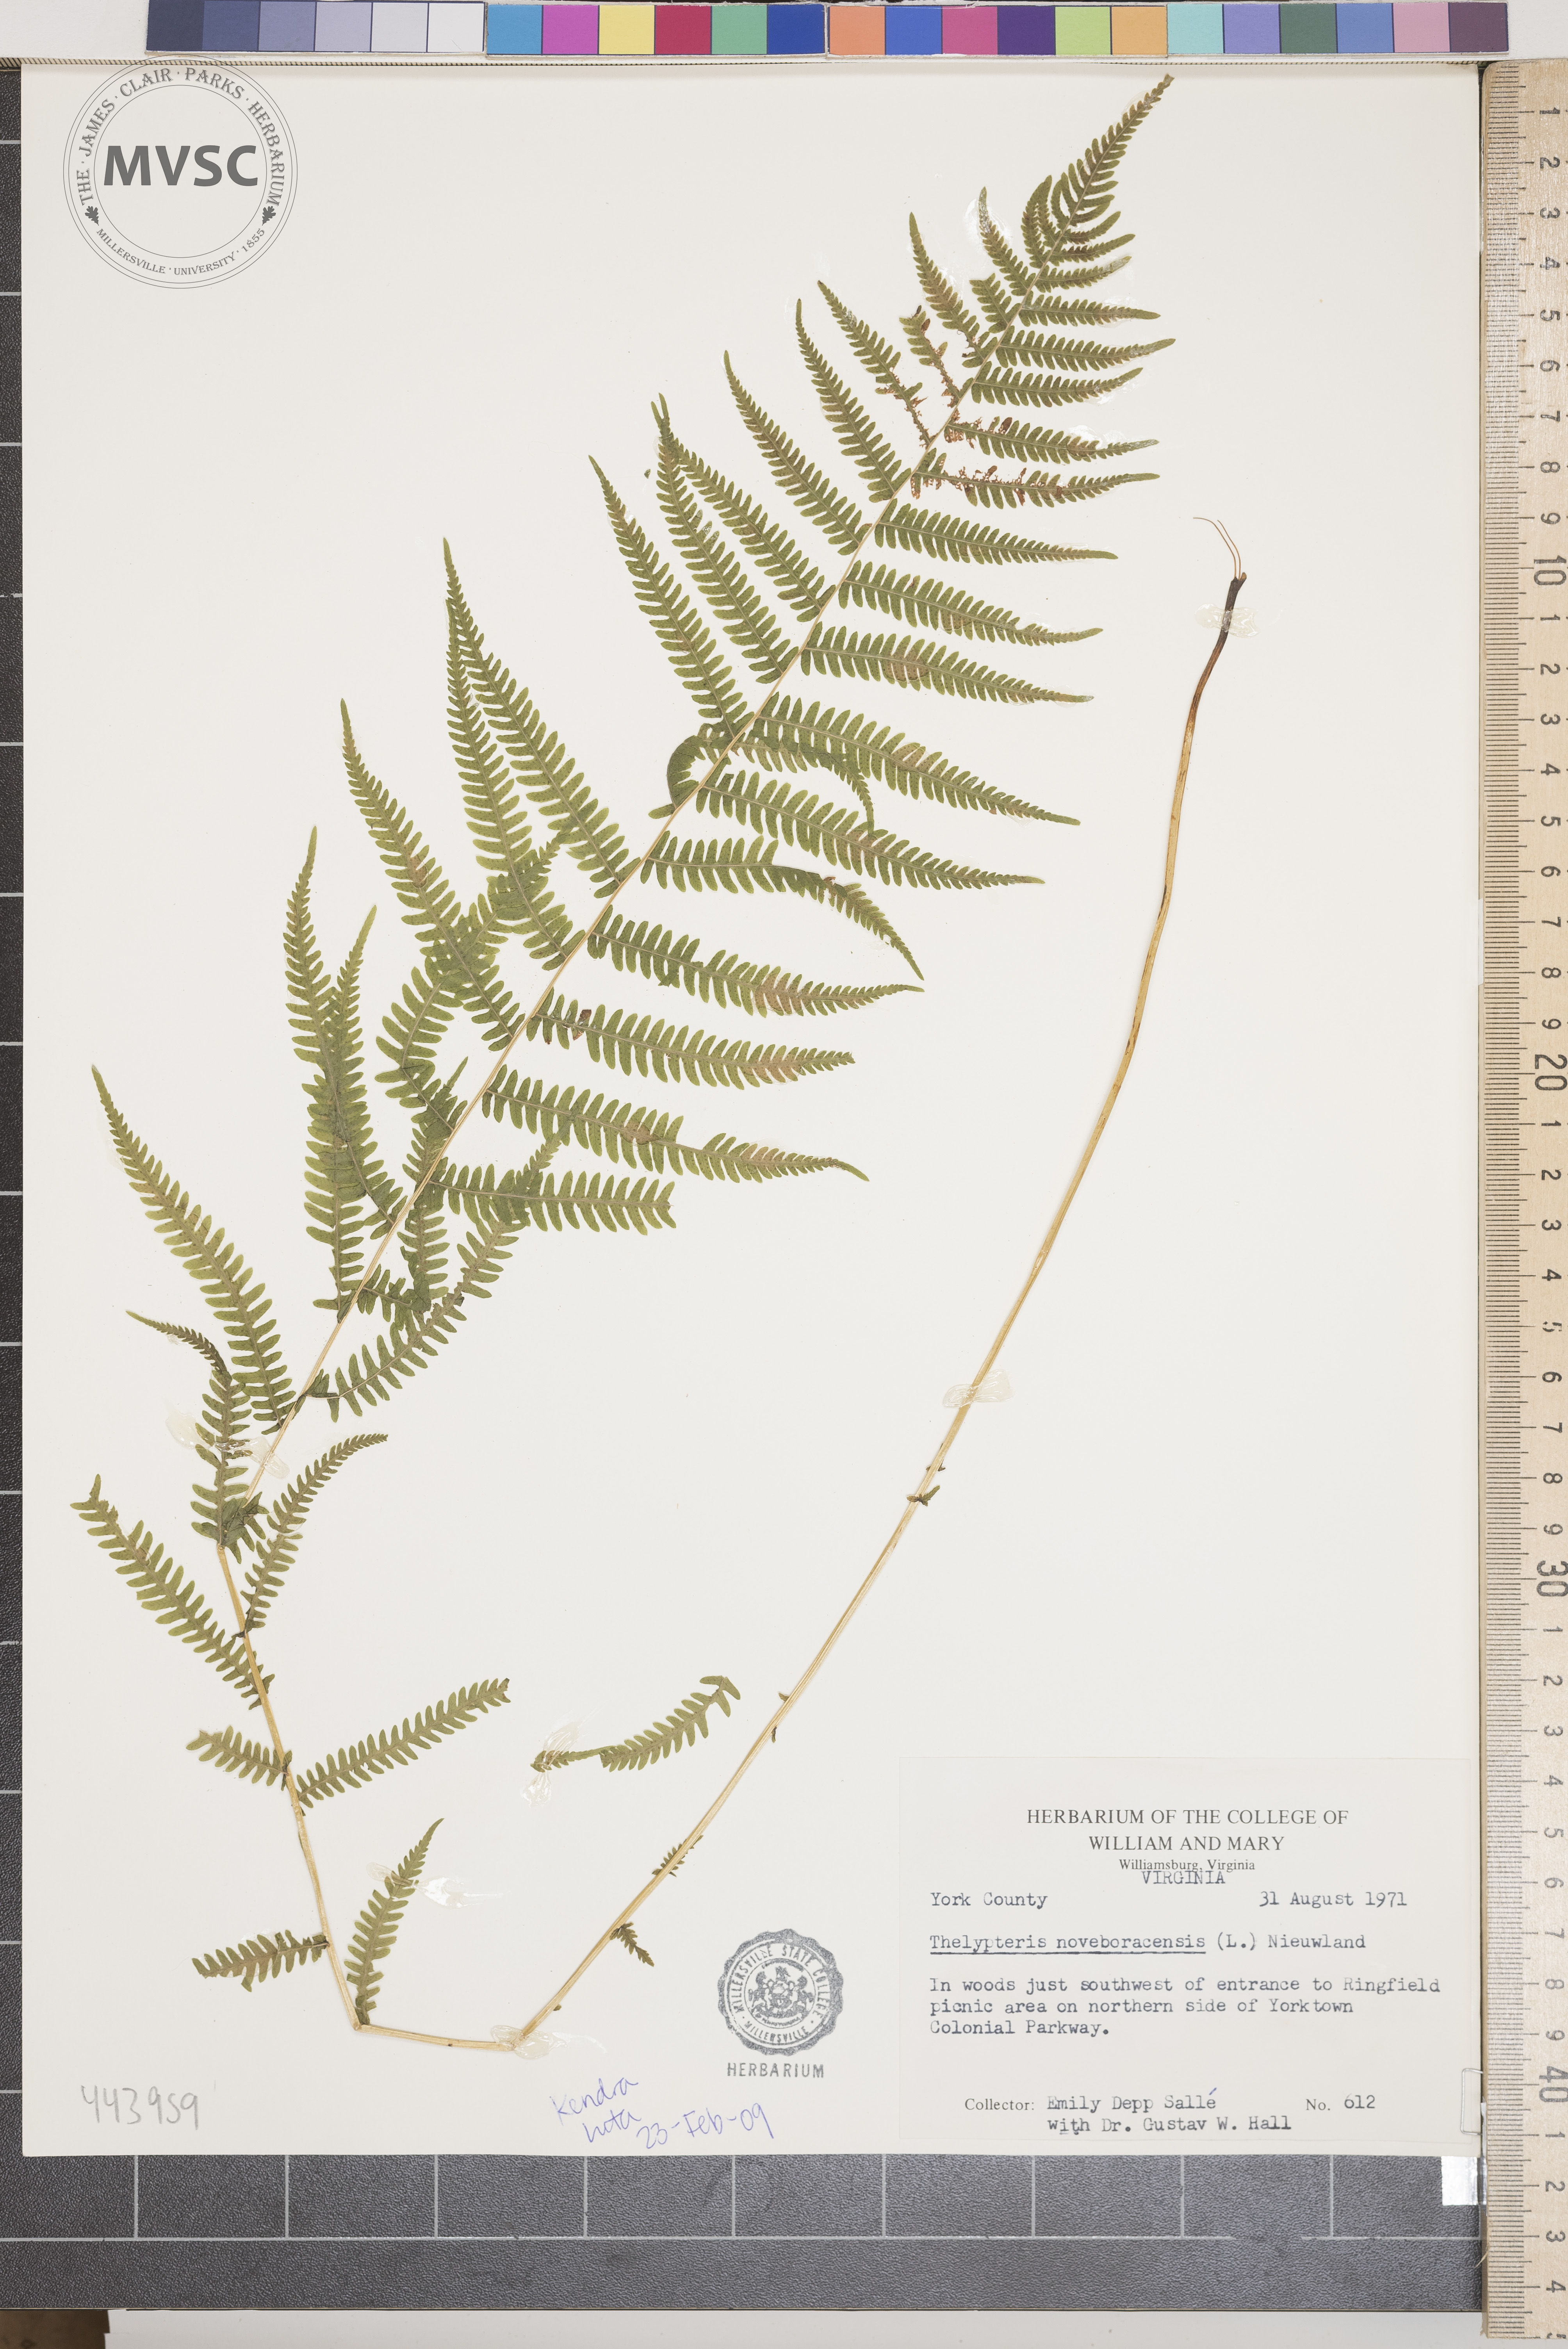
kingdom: Plantae
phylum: Tracheophyta
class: Polypodiopsida
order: Polypodiales
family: Thelypteridaceae
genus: Amauropelta
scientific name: Amauropelta noveboracensis
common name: New york fern
